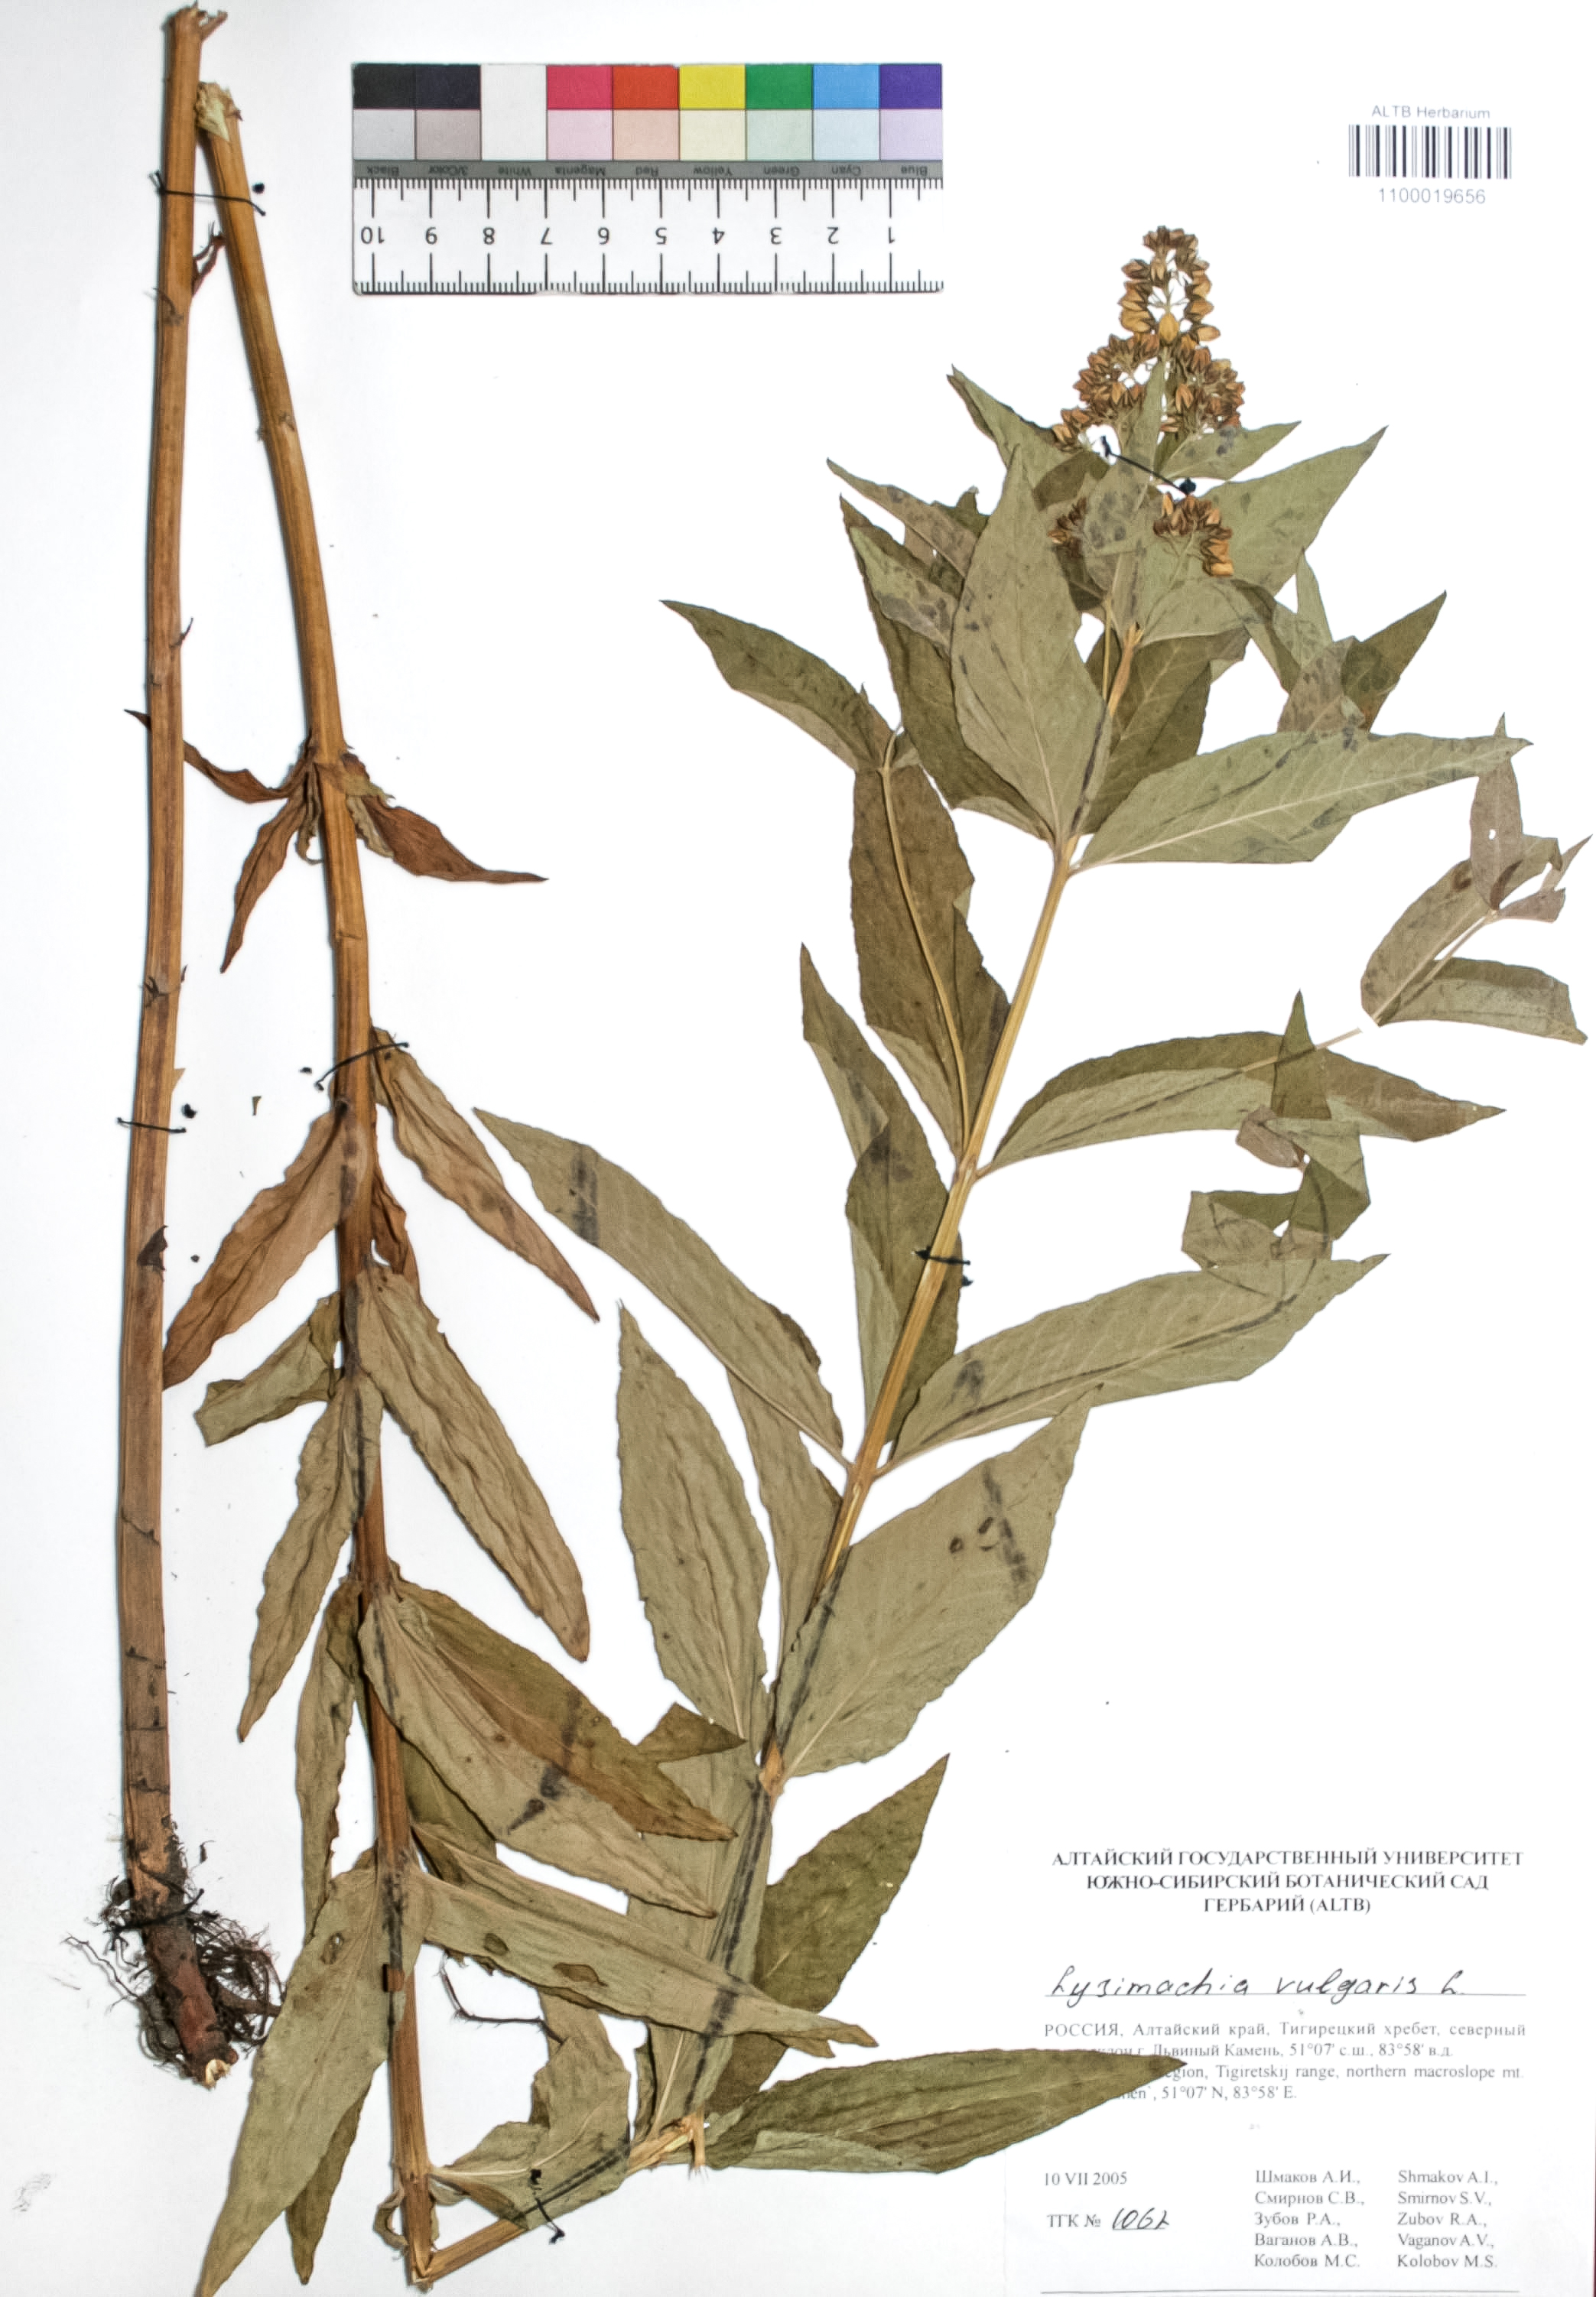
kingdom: Plantae
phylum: Tracheophyta
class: Magnoliopsida
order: Ericales
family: Primulaceae
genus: Lysimachia
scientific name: Lysimachia vulgaris
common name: Yellow loosestrife
